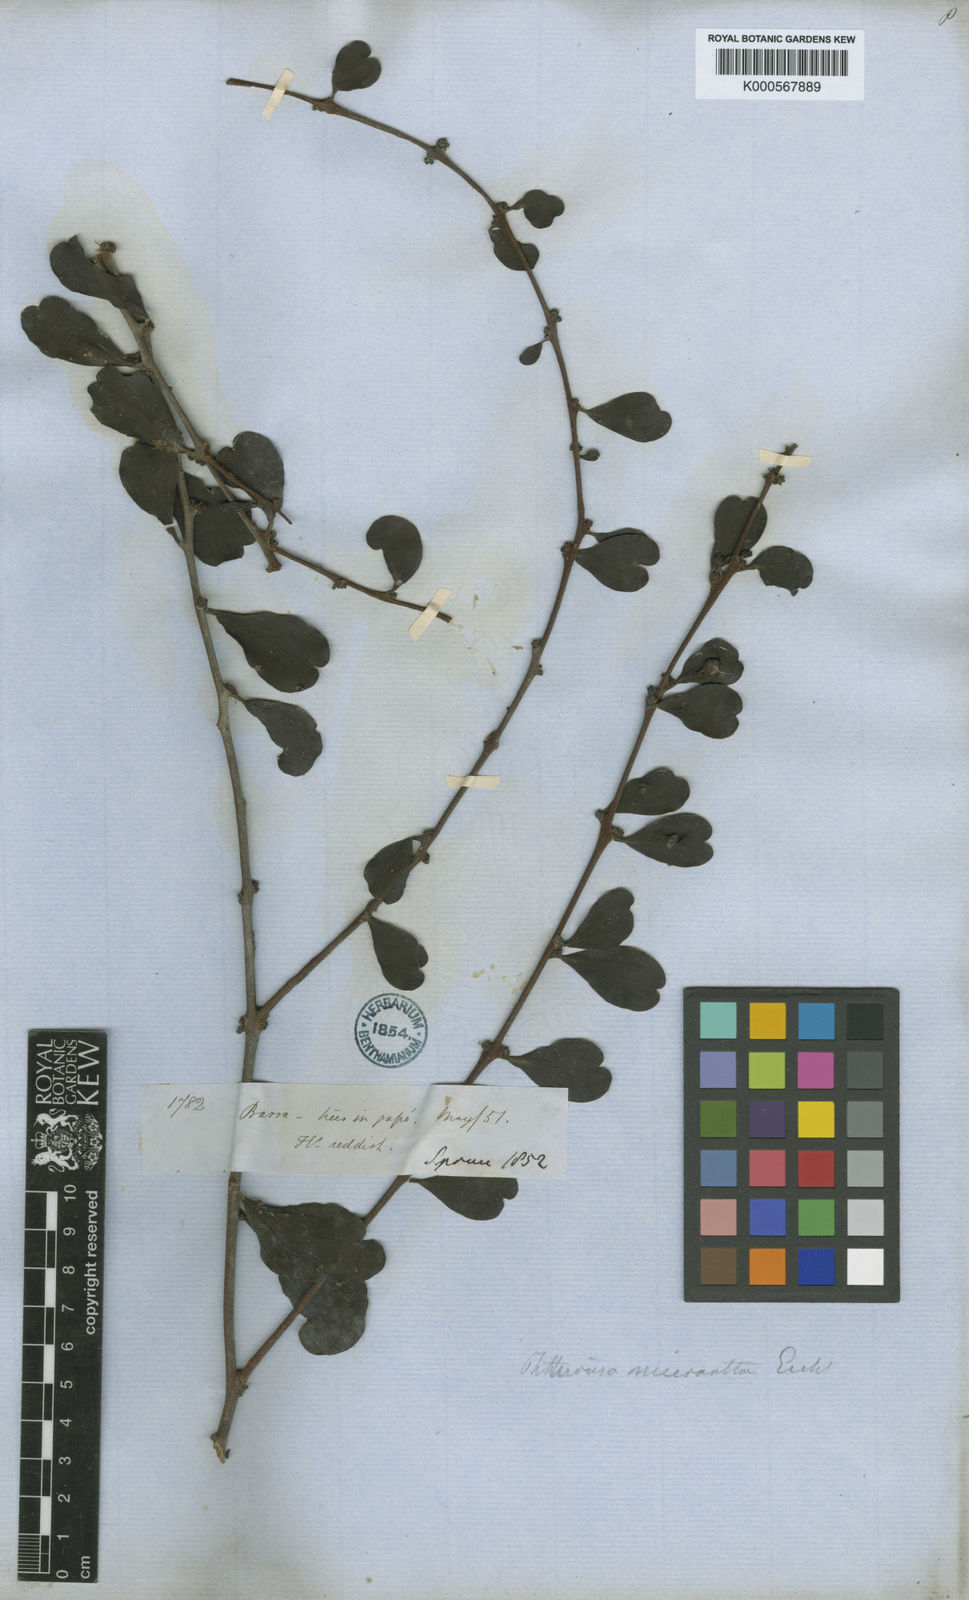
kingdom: Plantae
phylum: Tracheophyta
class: Magnoliopsida
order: Santalales
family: Loranthaceae
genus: Cladocolea
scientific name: Cladocolea micrantha
